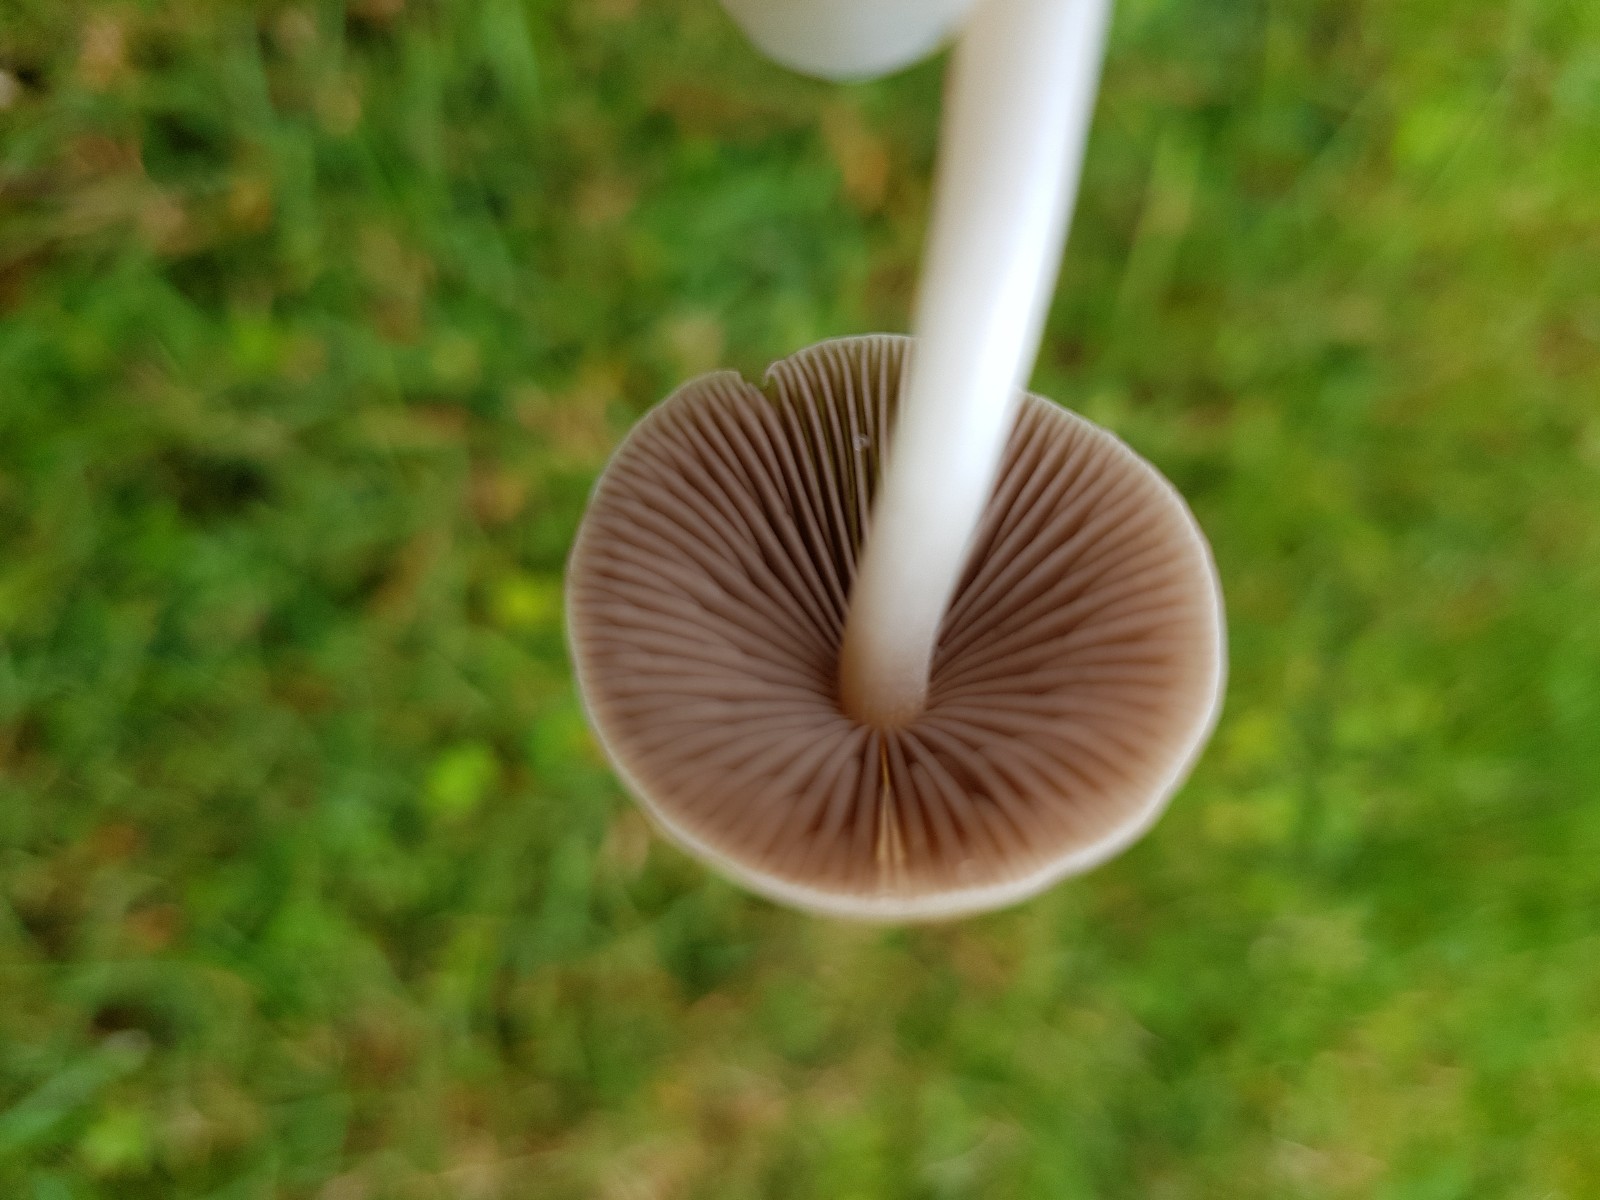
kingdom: Fungi
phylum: Basidiomycota
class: Agaricomycetes
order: Agaricales
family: Psathyrellaceae
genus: Britzelmayria
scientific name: Britzelmayria multipedata
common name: knippe-mørkhat
